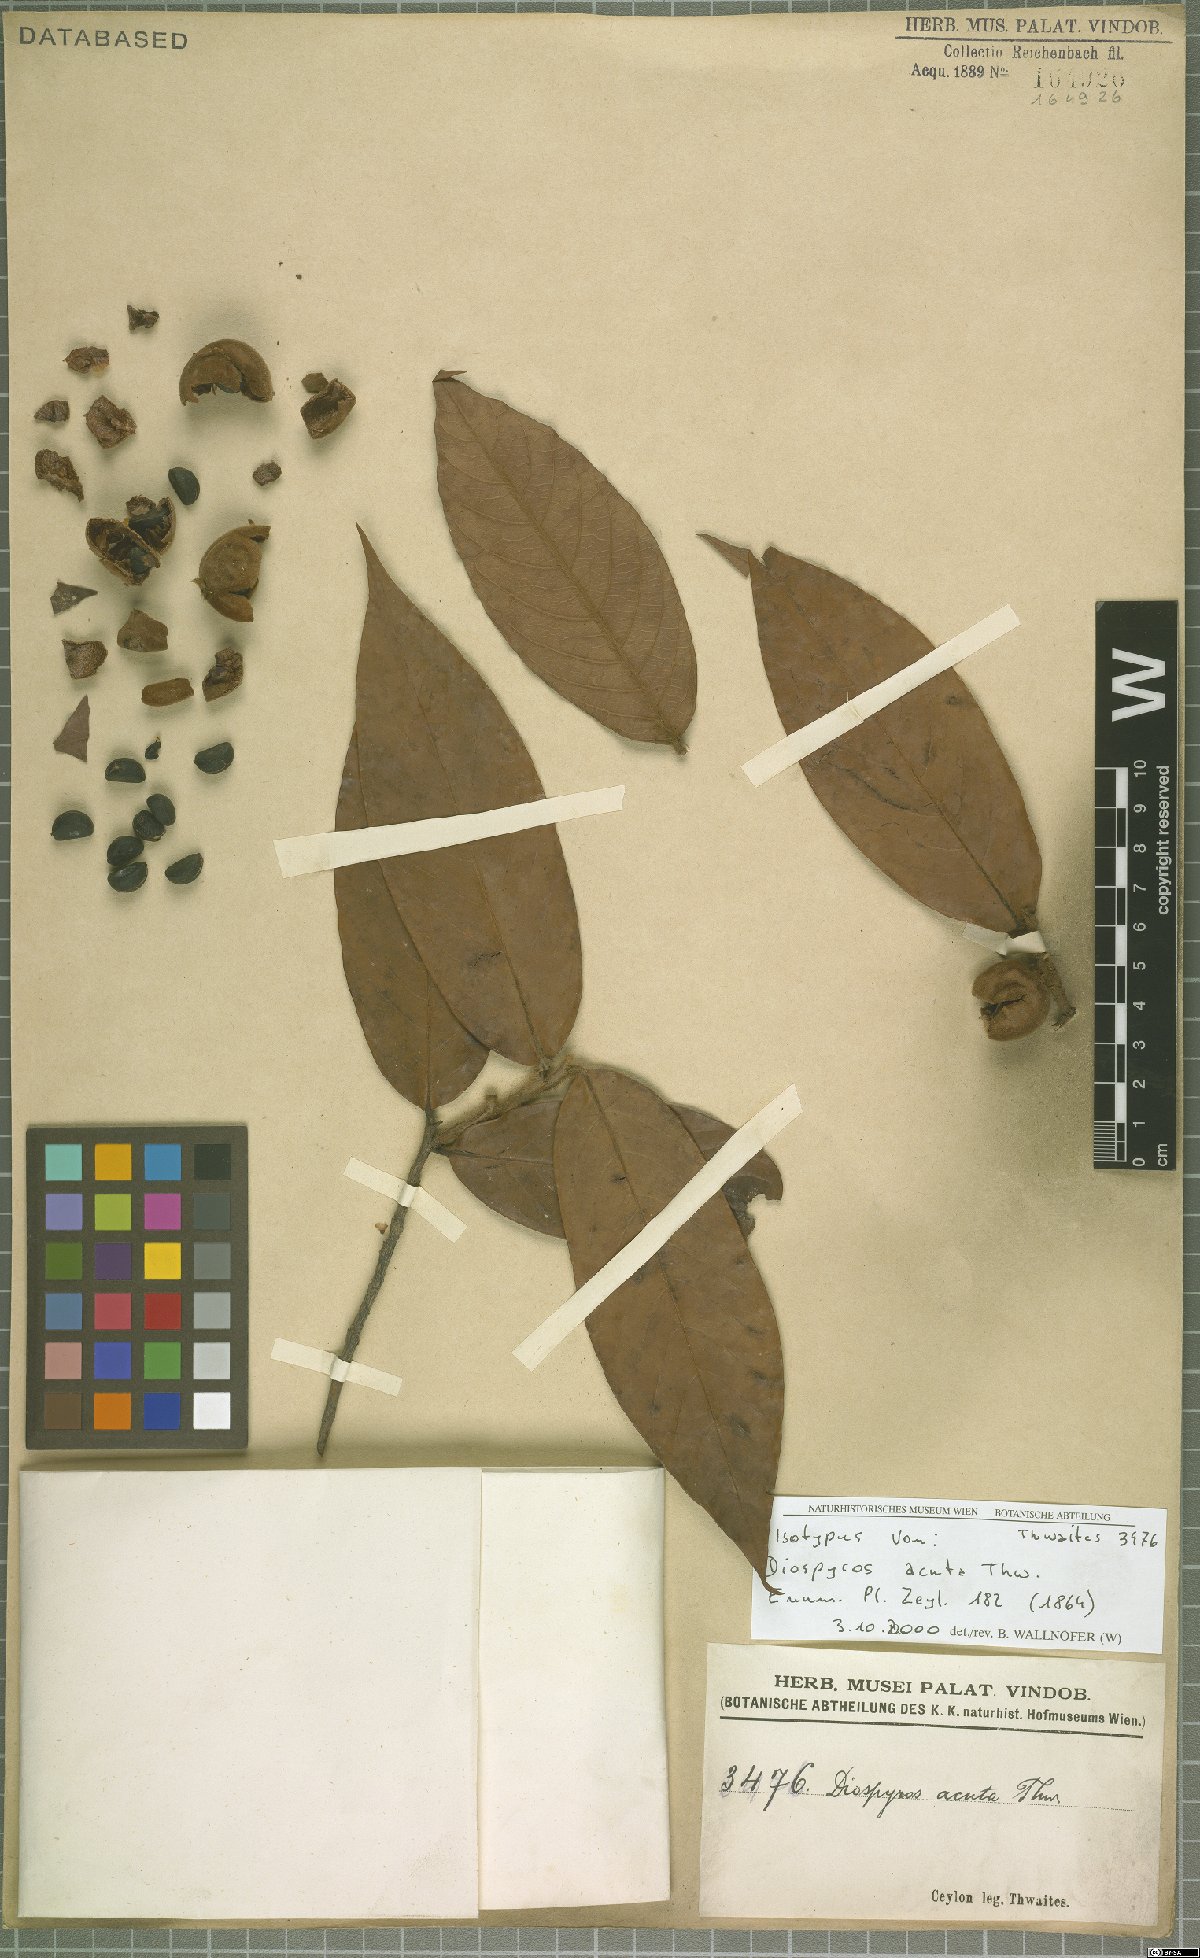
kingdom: Plantae
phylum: Tracheophyta
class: Magnoliopsida
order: Ericales
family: Ebenaceae
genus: Diospyros
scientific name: Diospyros acuta
